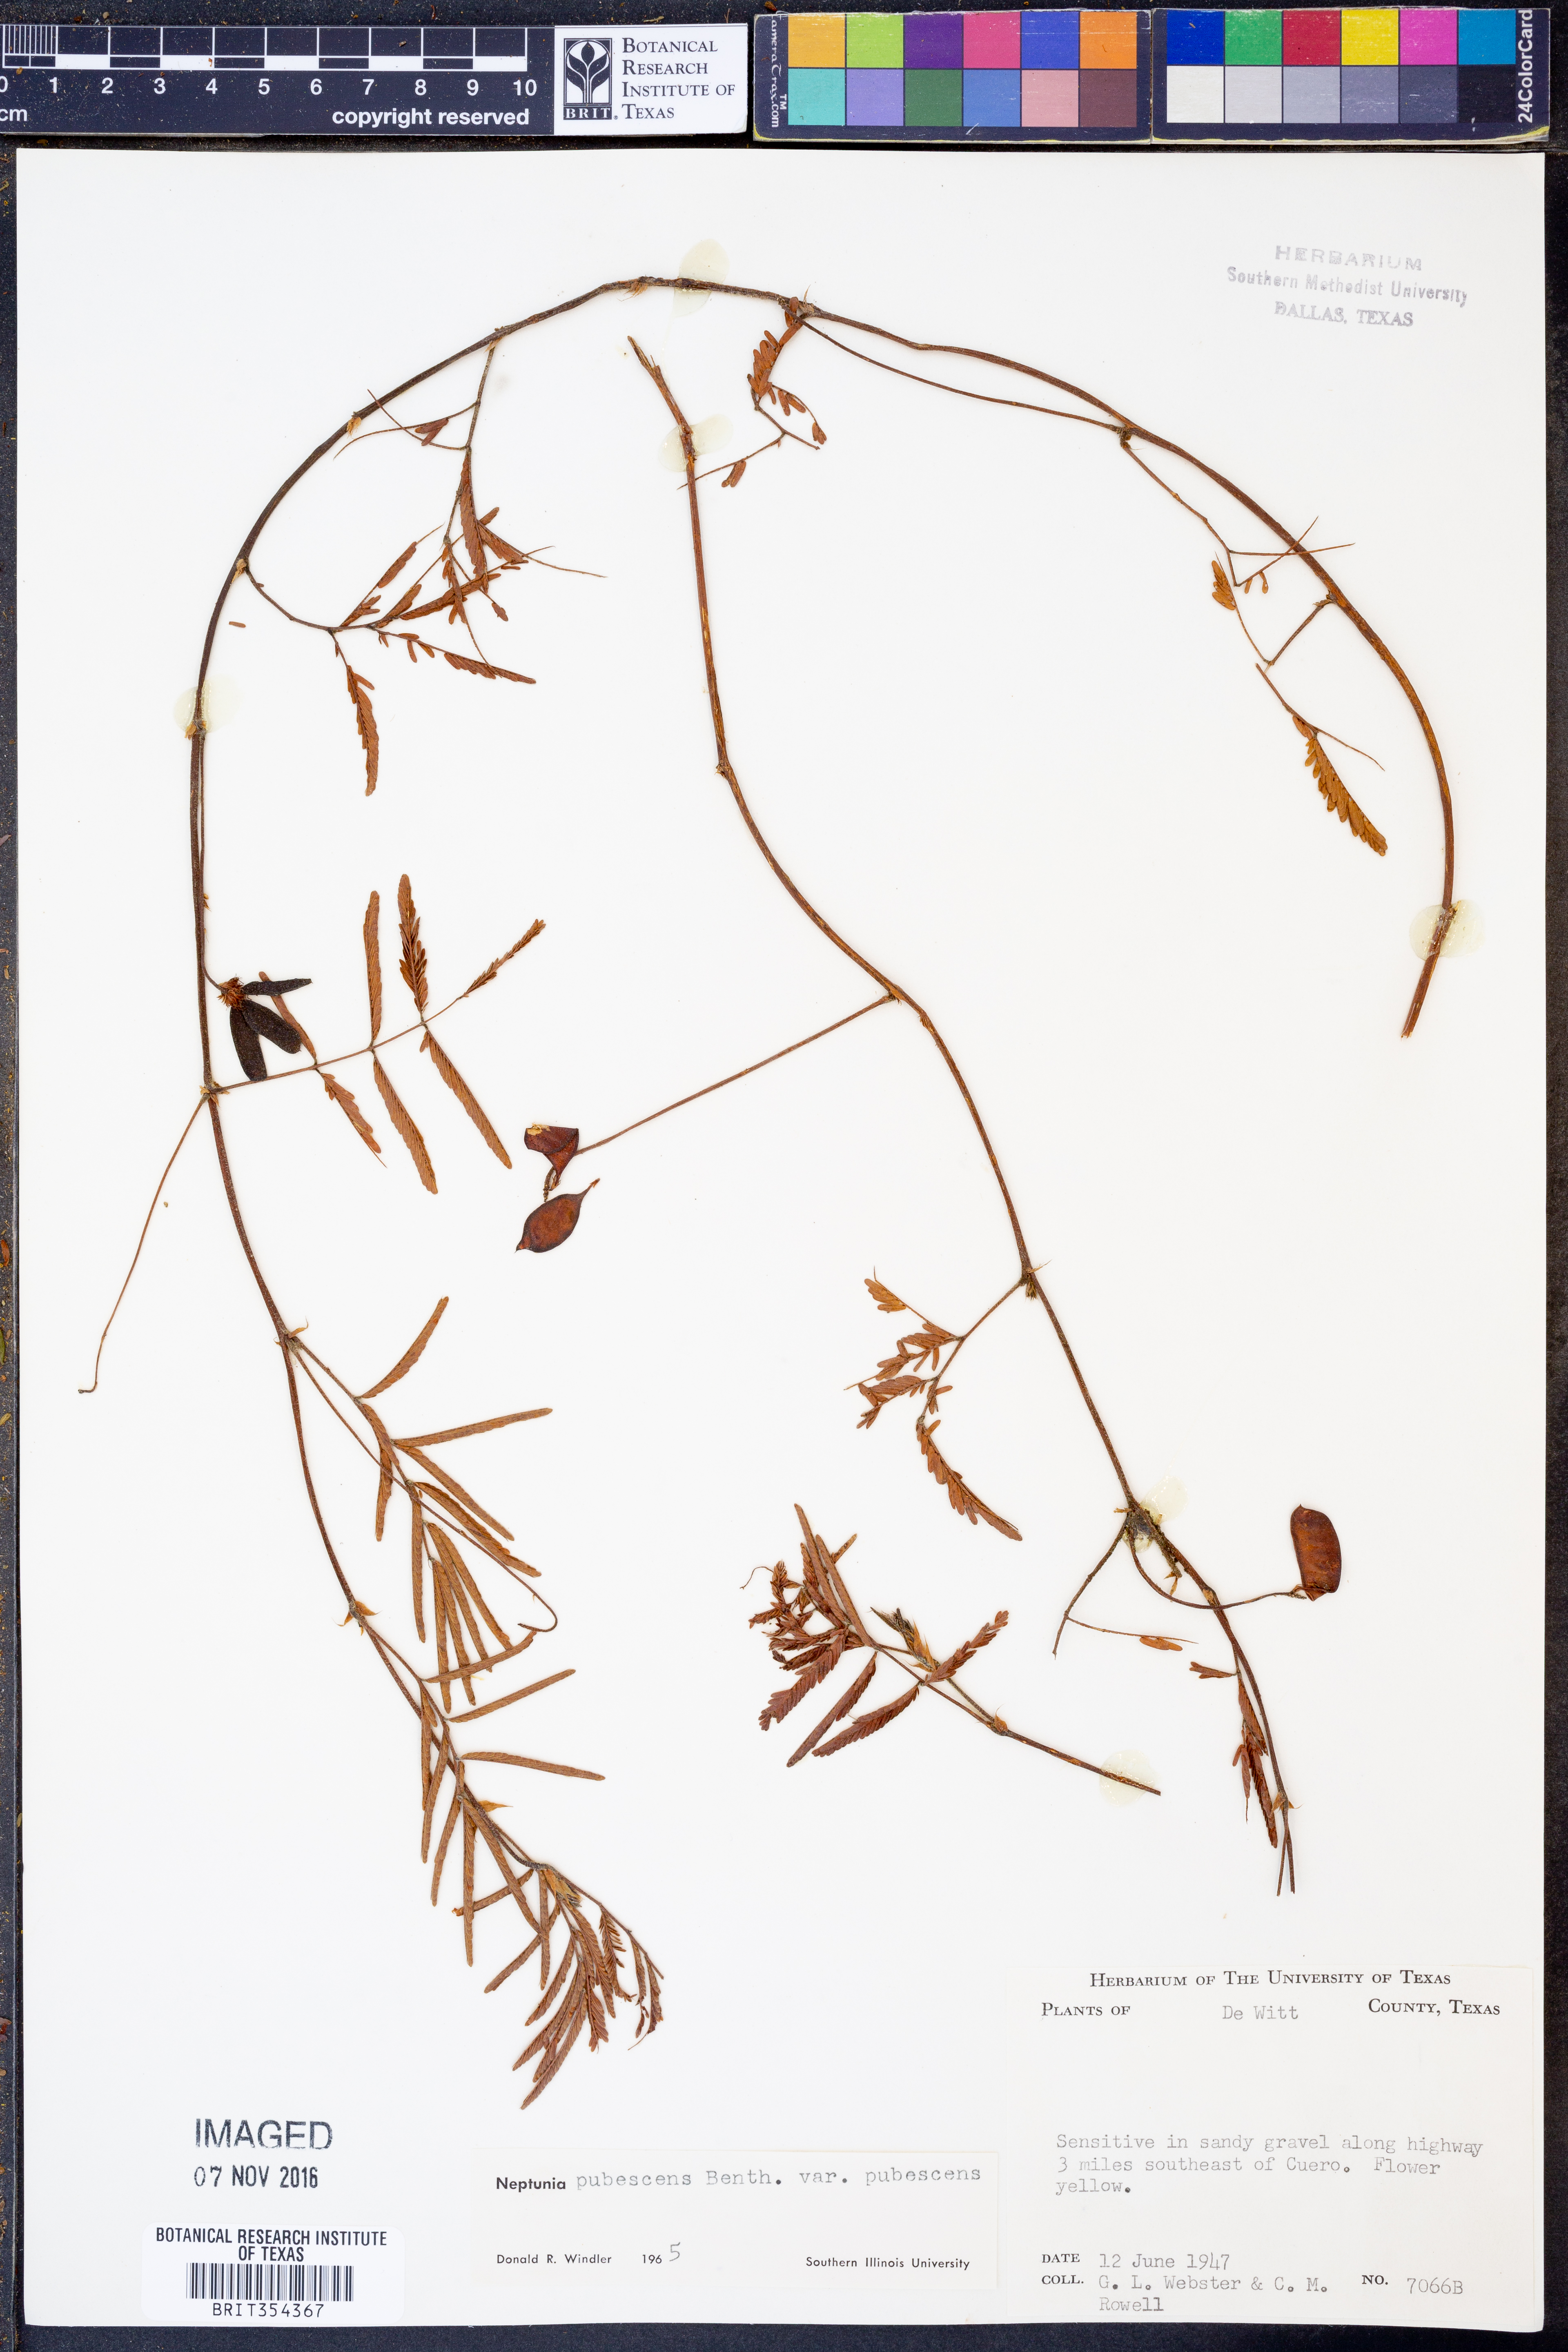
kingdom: Plantae
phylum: Tracheophyta
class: Magnoliopsida
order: Fabales
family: Fabaceae
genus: Neptunia
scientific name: Neptunia pubescens
